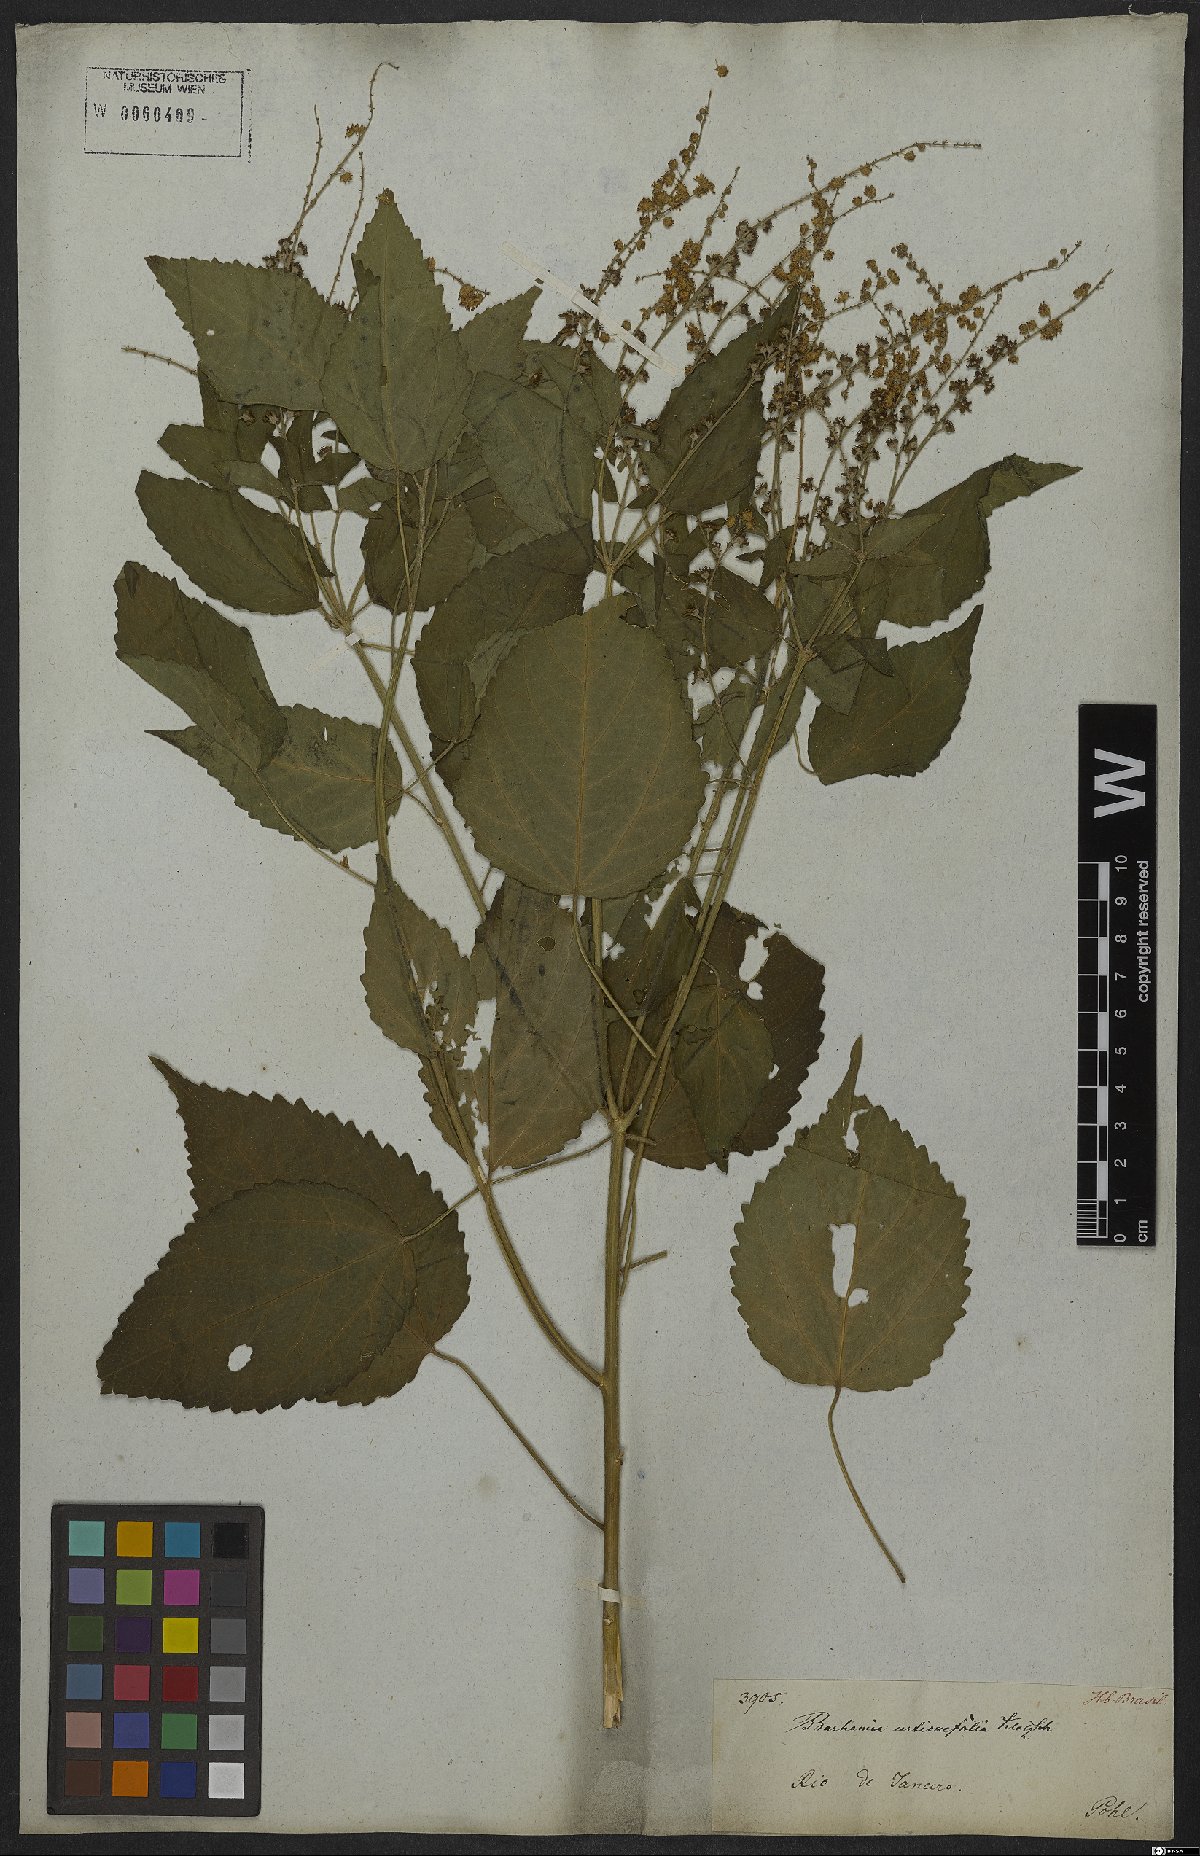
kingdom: Plantae
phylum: Tracheophyta
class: Magnoliopsida
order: Malpighiales
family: Euphorbiaceae
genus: Croton
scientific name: Croton urticifolius
